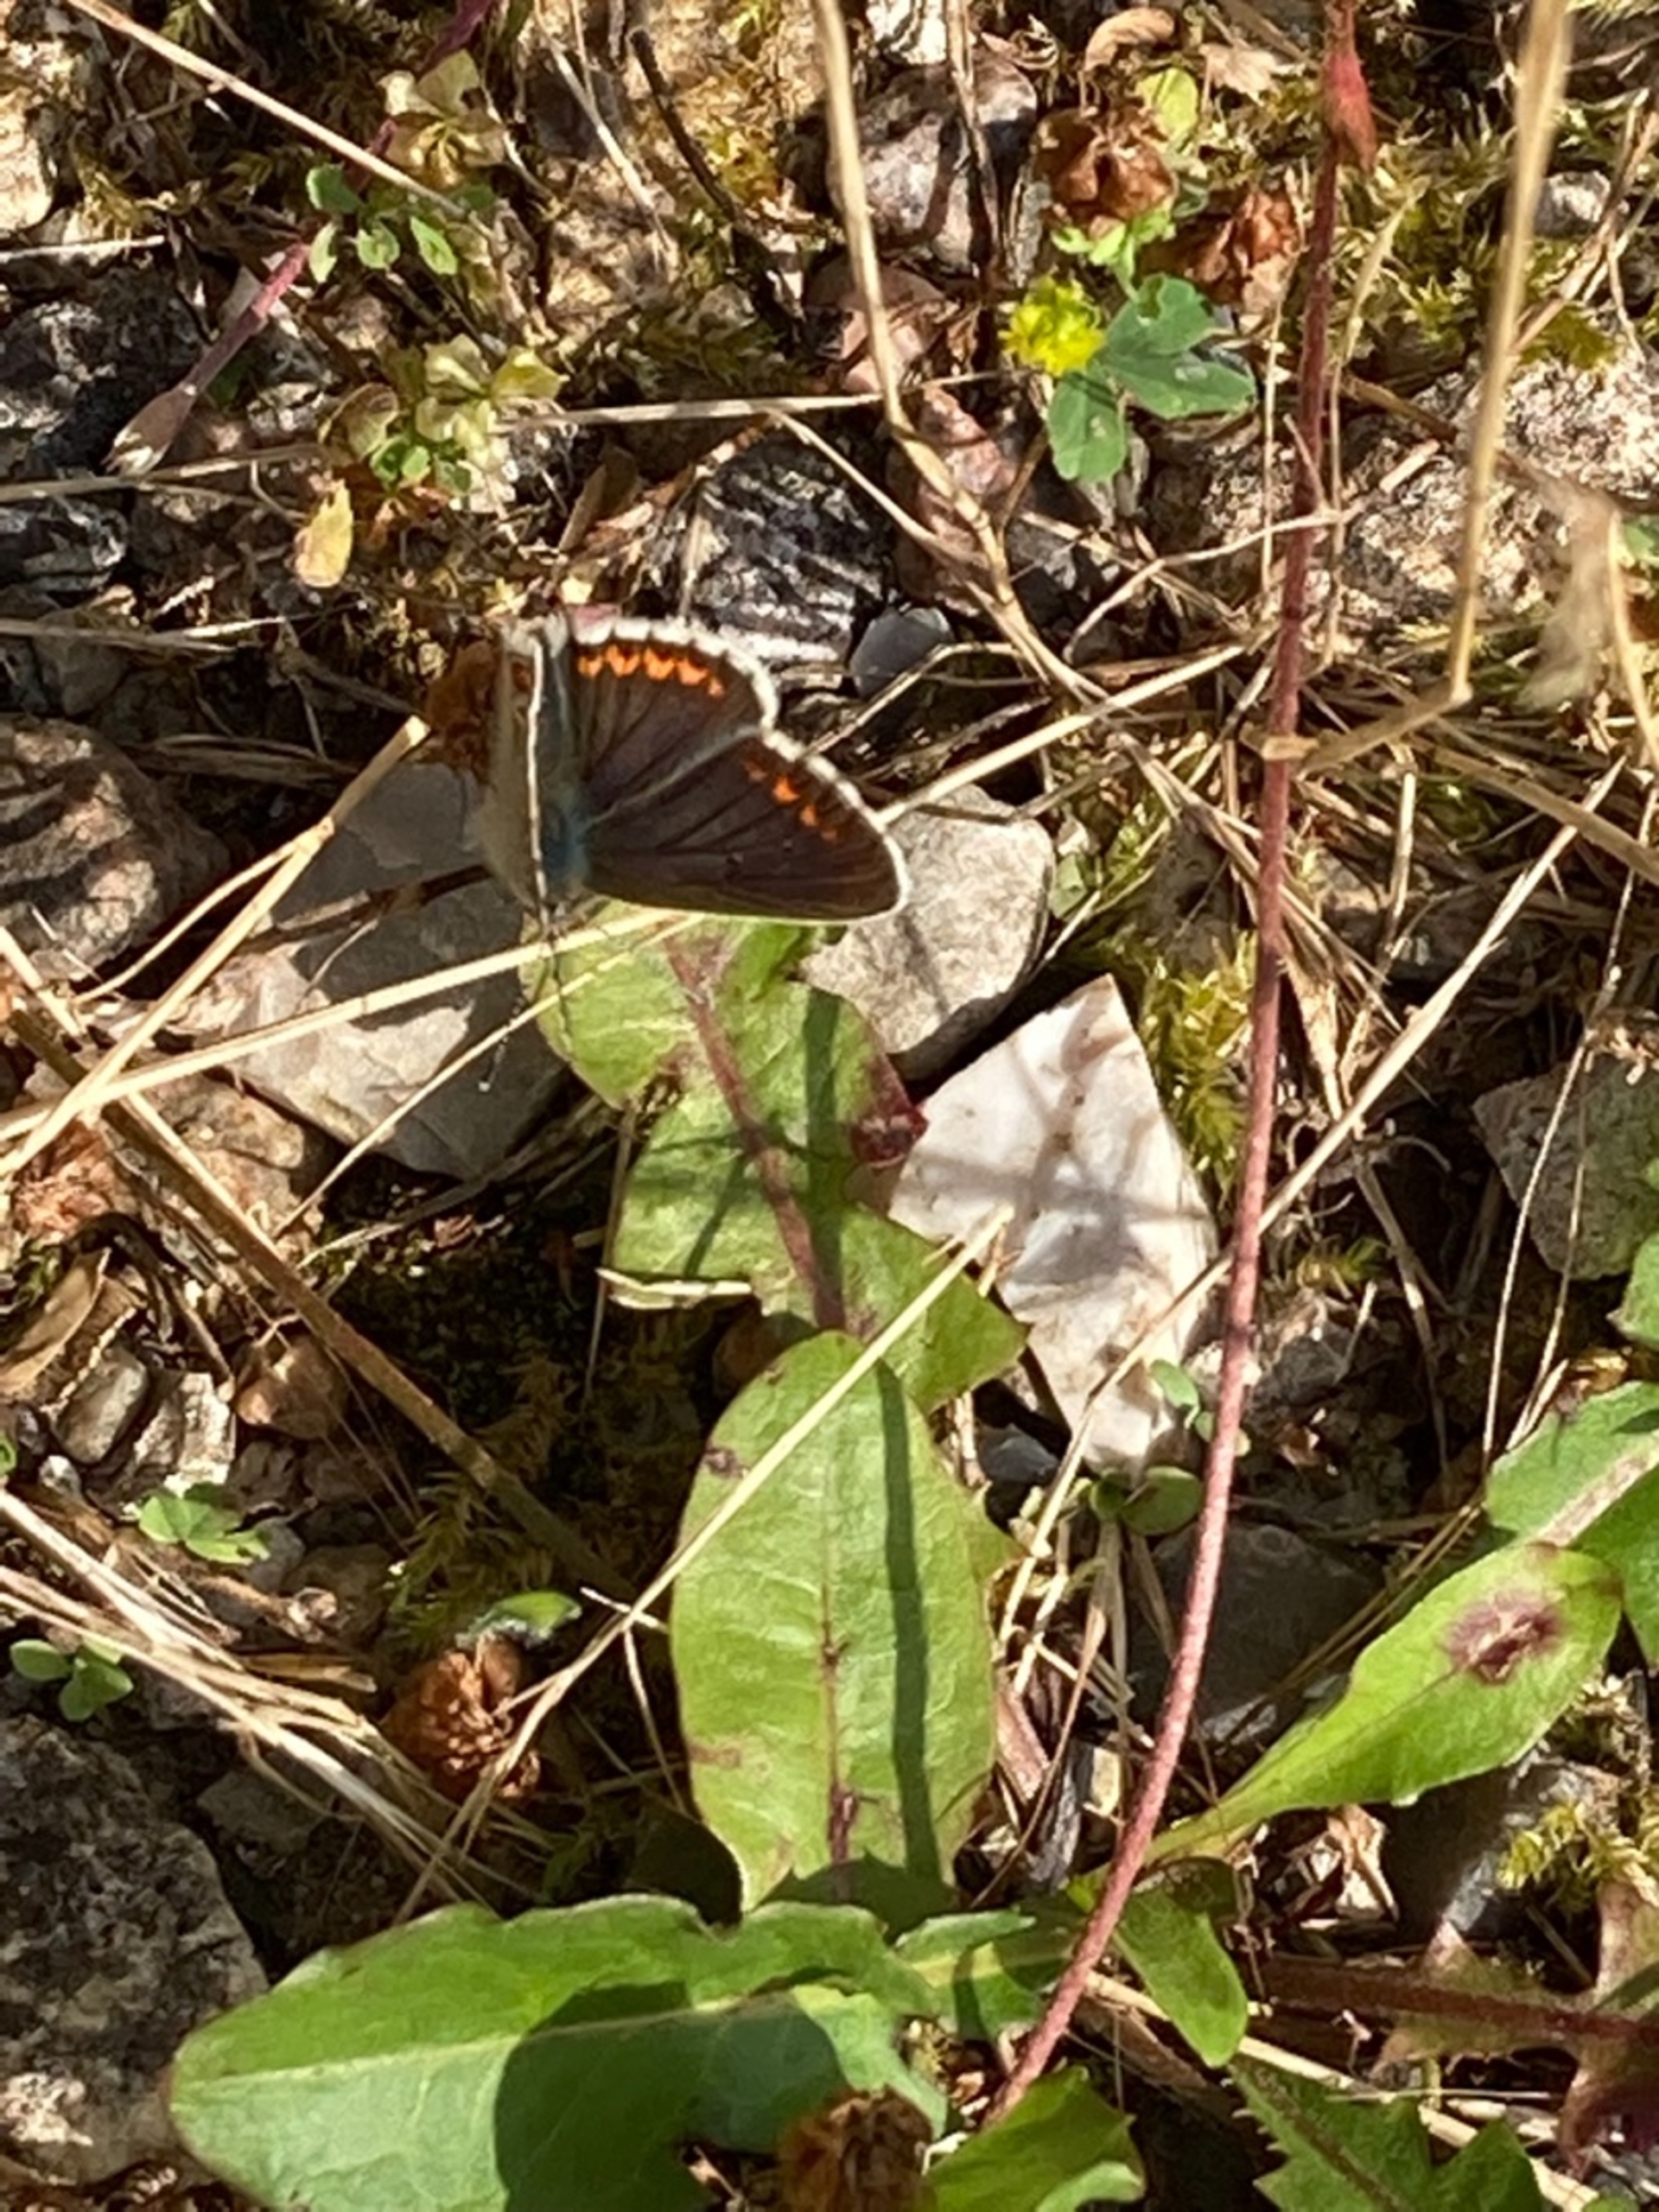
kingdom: Animalia
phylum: Arthropoda
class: Insecta
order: Lepidoptera
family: Lycaenidae
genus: Aricia
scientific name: Aricia agestis
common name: Rødplettet blåfugl
